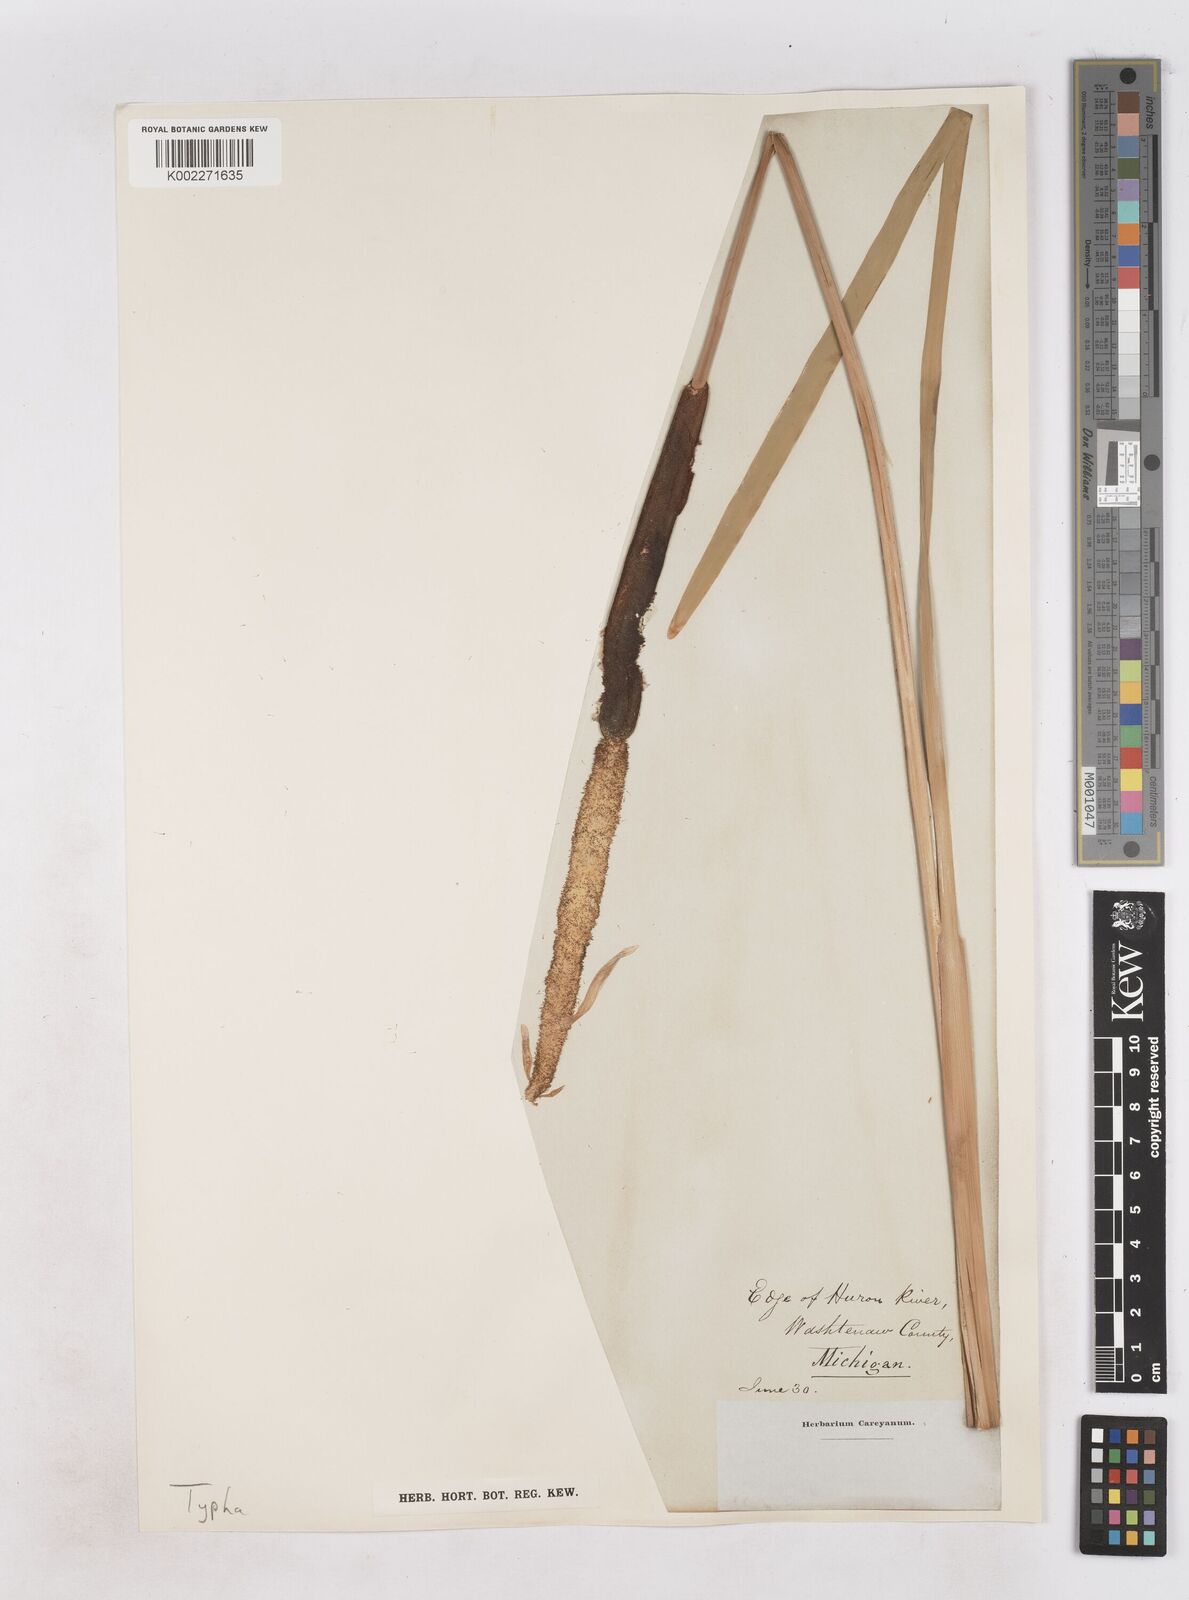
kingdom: Plantae
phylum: Tracheophyta
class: Liliopsida
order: Poales
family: Typhaceae
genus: Typha
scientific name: Typha latifolia
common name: Broadleaf cattail
